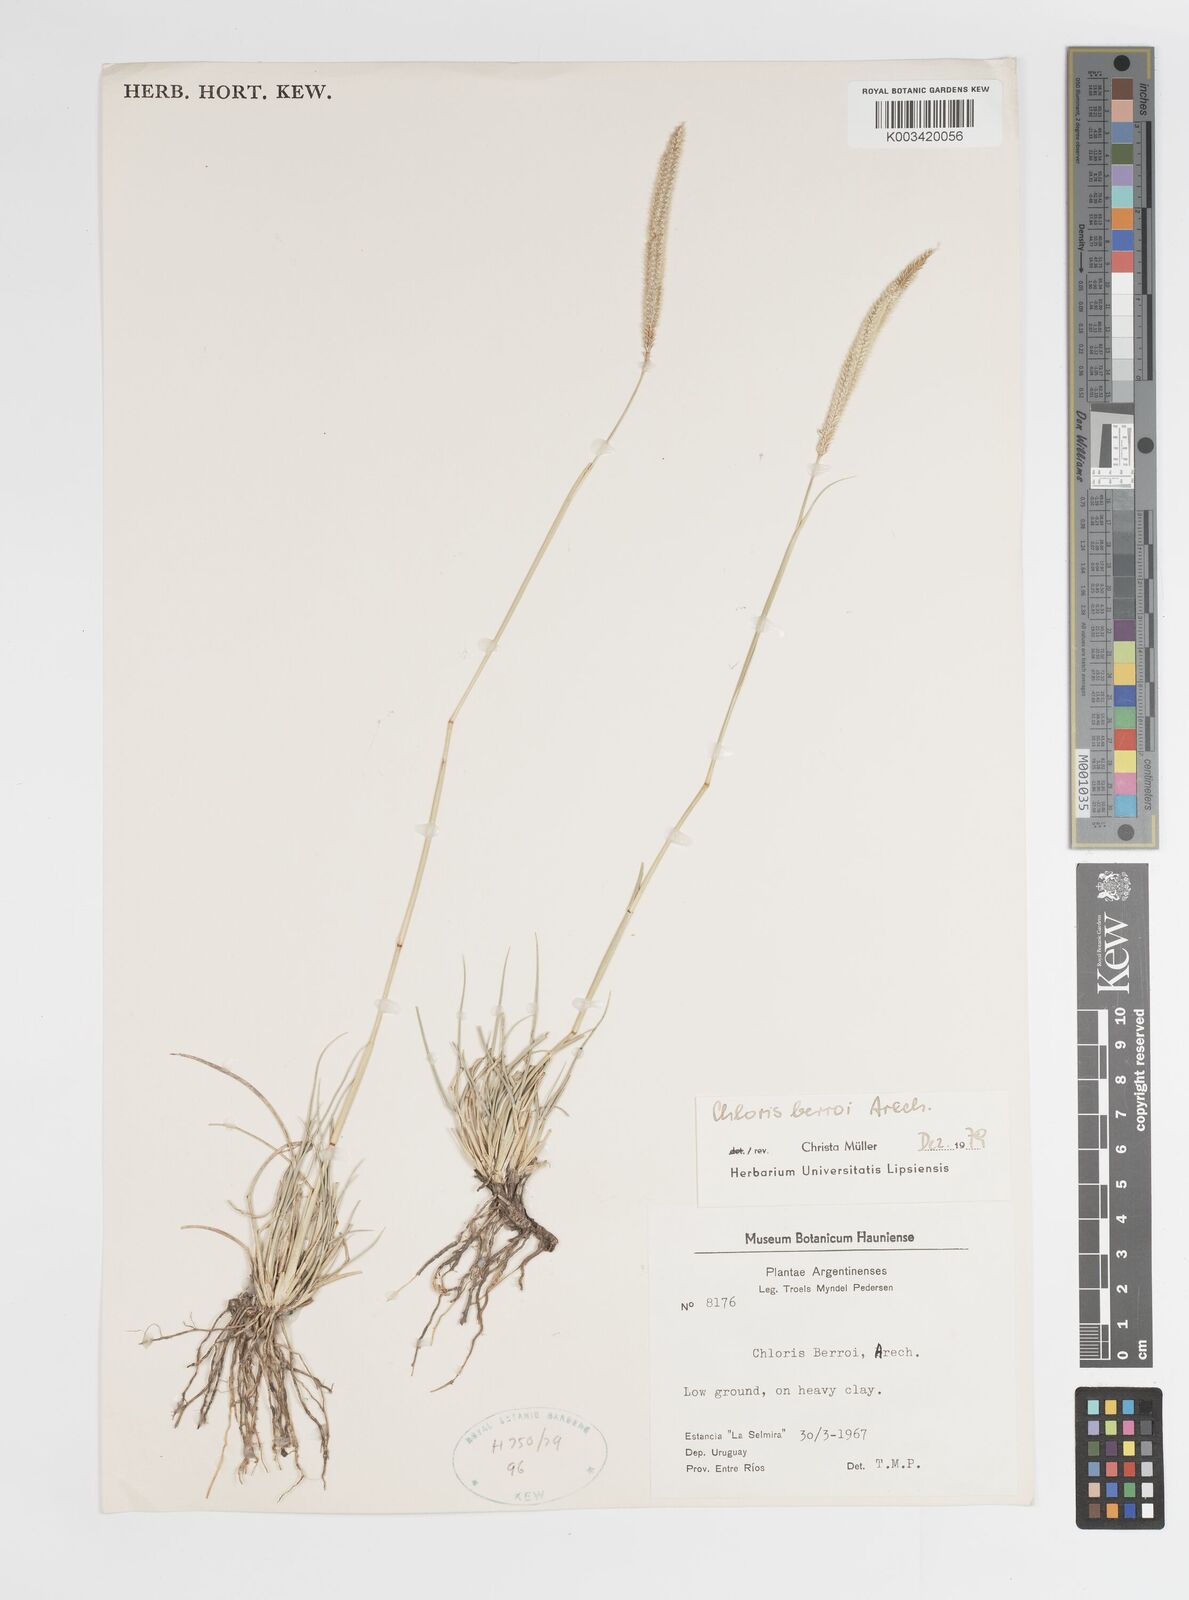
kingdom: Plantae
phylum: Tracheophyta
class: Liliopsida
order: Poales
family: Poaceae
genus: Stapfochloa
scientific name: Stapfochloa berroi
